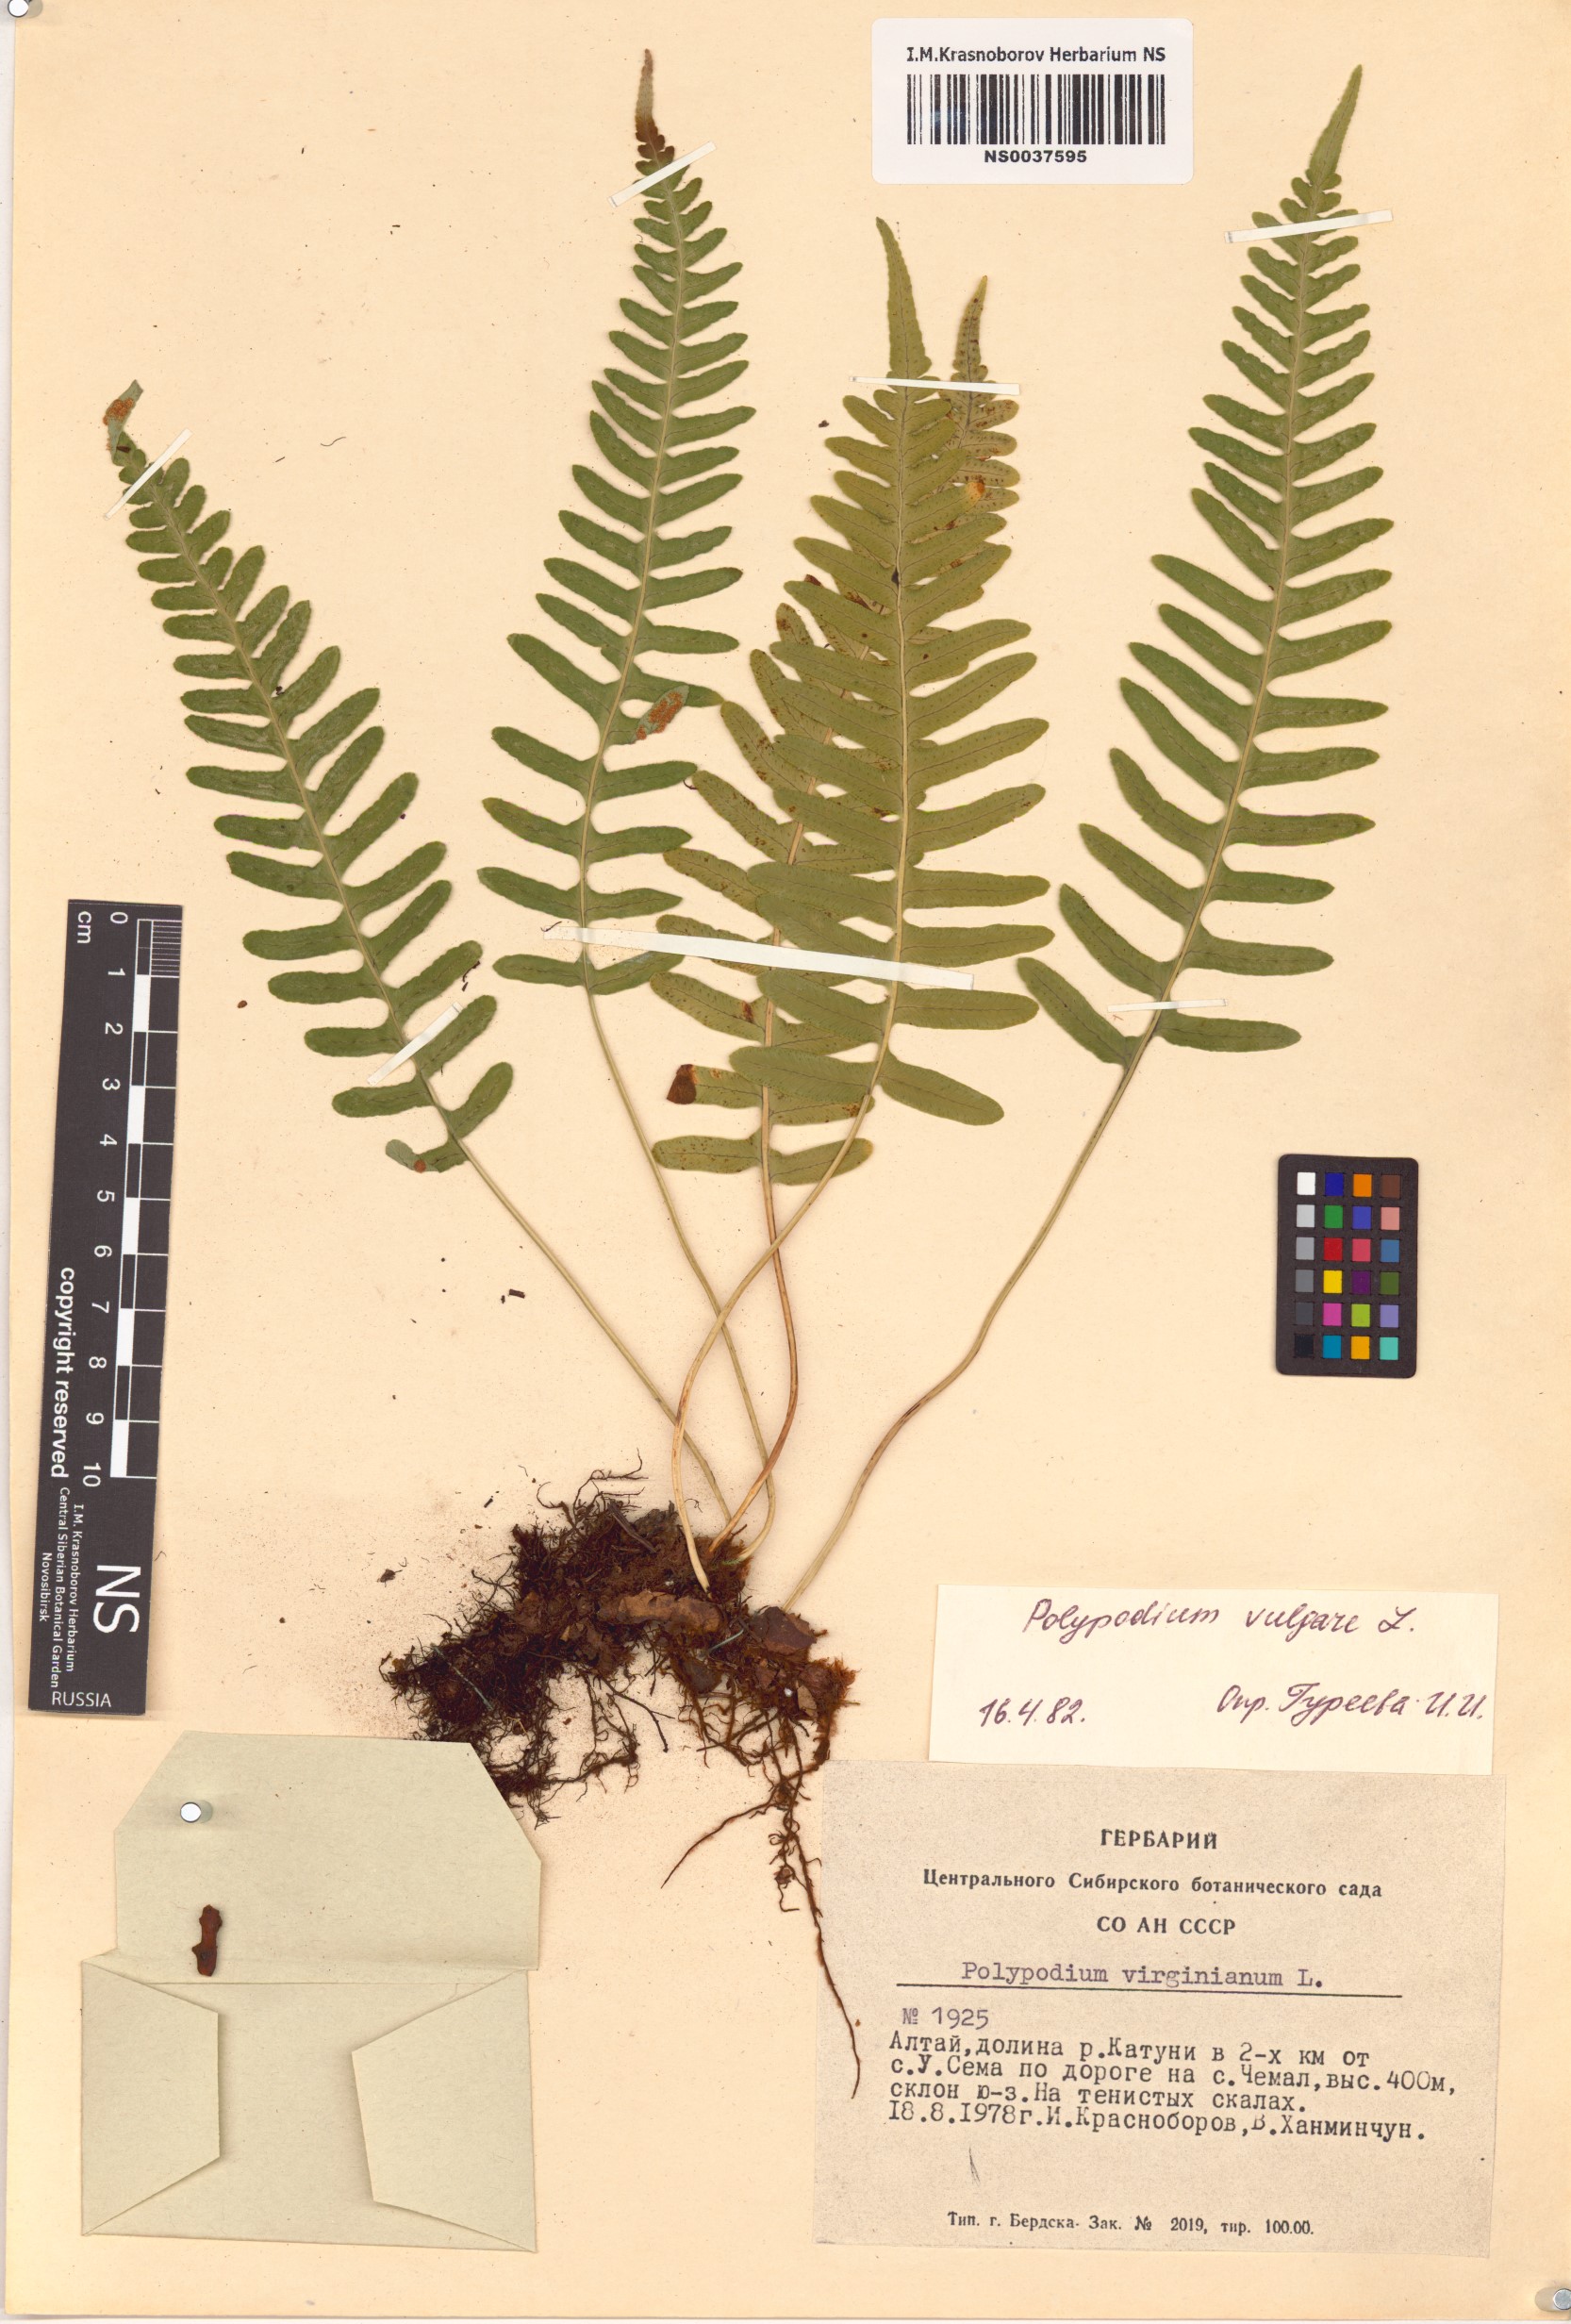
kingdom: Plantae
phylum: Tracheophyta
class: Polypodiopsida
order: Polypodiales
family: Polypodiaceae
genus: Polypodium
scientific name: Polypodium vulgare
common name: Common polypody
